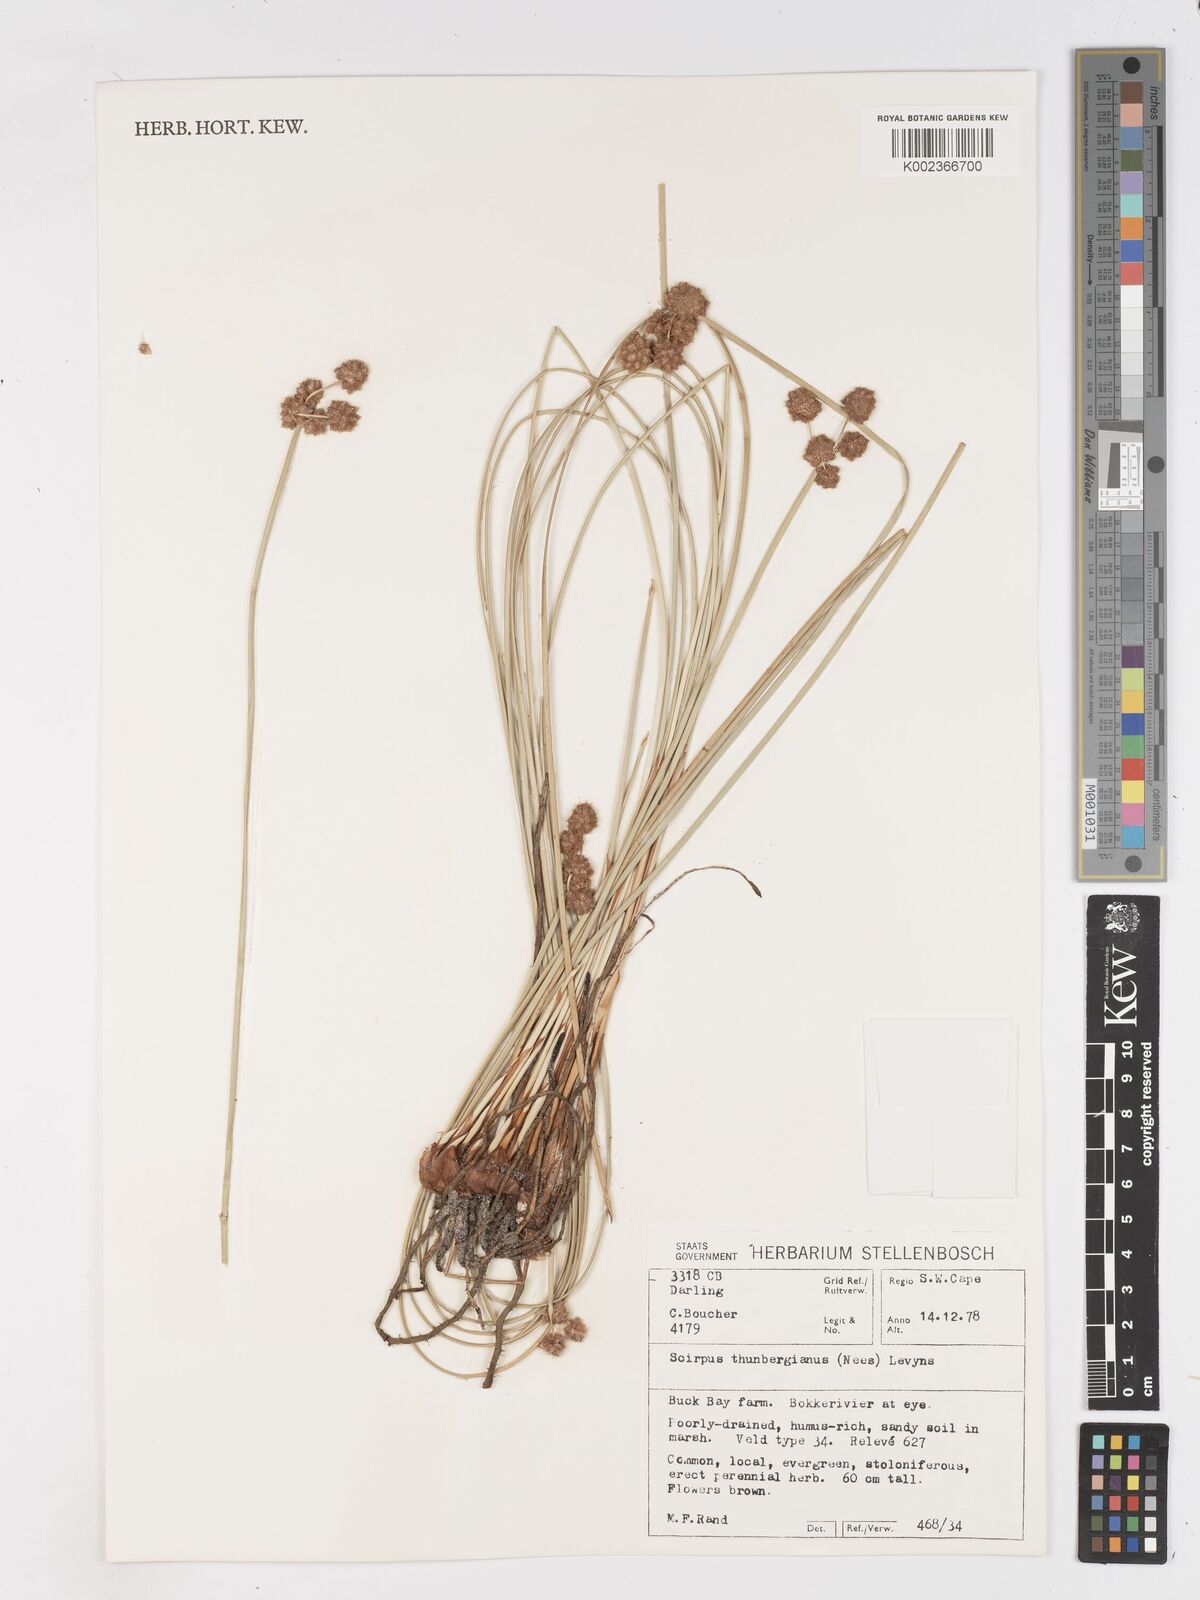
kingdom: Plantae
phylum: Tracheophyta
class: Liliopsida
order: Poales
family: Cyperaceae
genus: Scirpoides
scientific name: Scirpoides holoschoenus
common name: Round-headed club-rush
